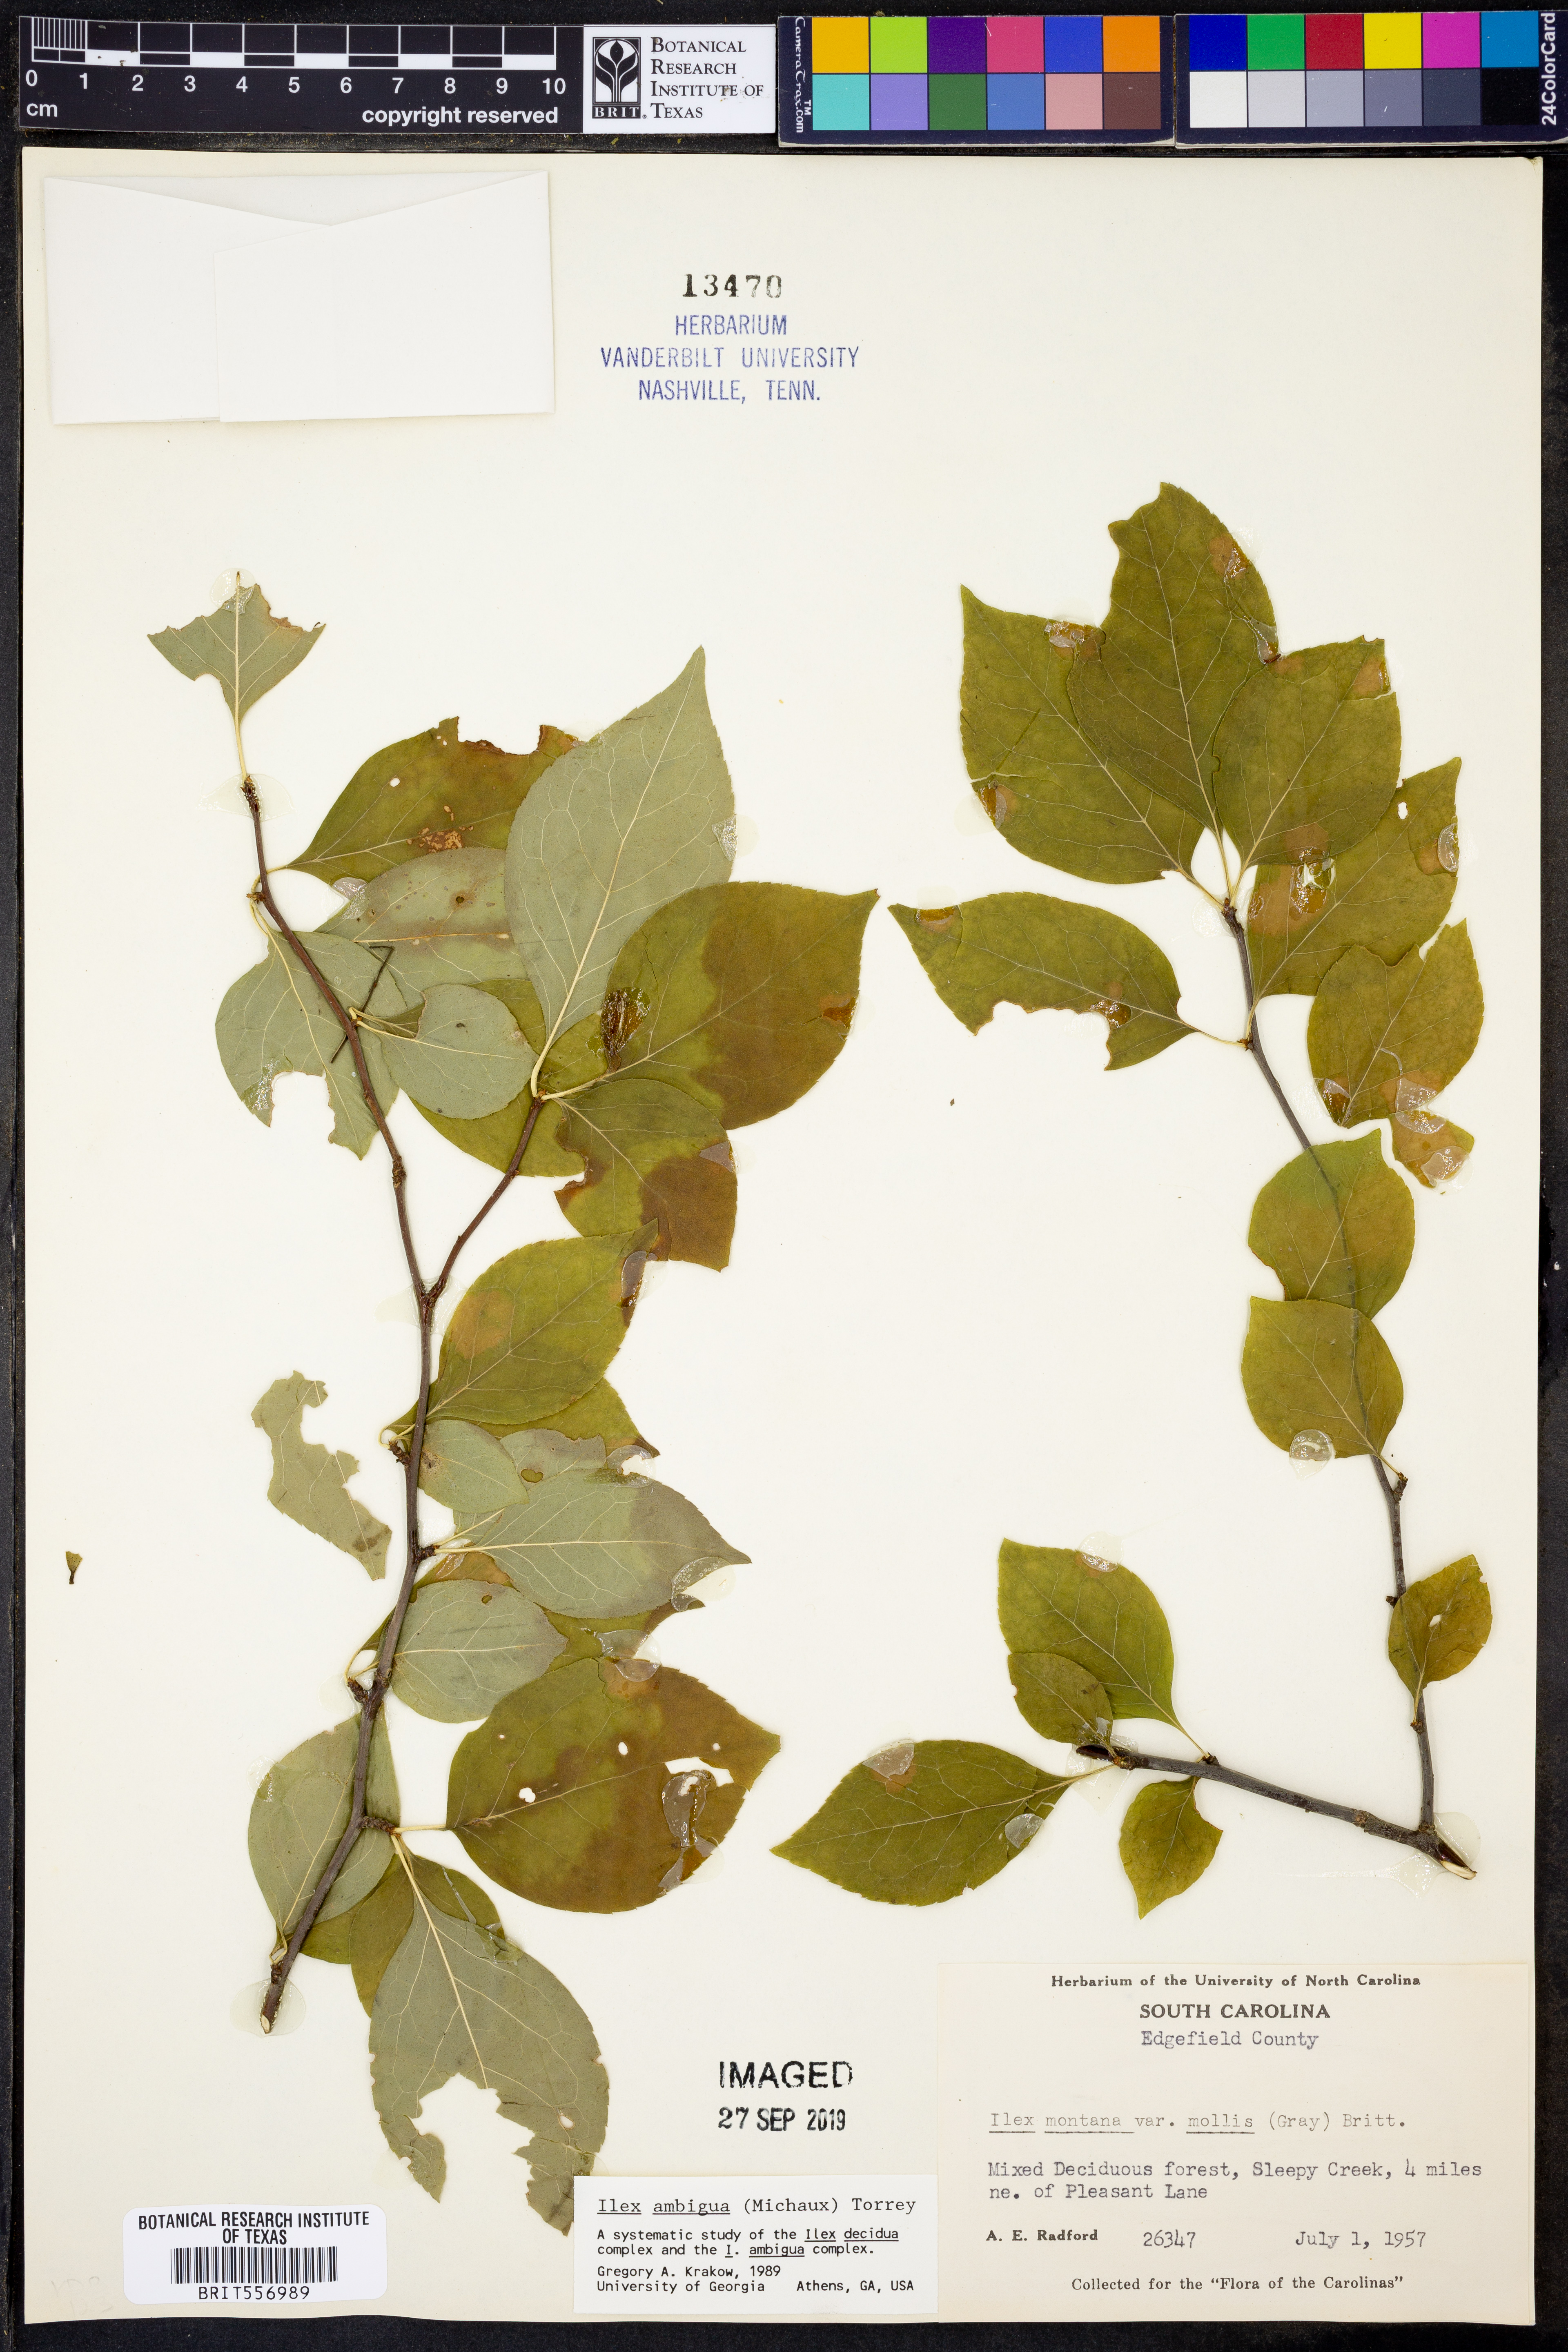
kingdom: Plantae
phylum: Tracheophyta
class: Magnoliopsida
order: Aquifoliales
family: Aquifoliaceae
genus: Ilex
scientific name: Ilex ambigua
